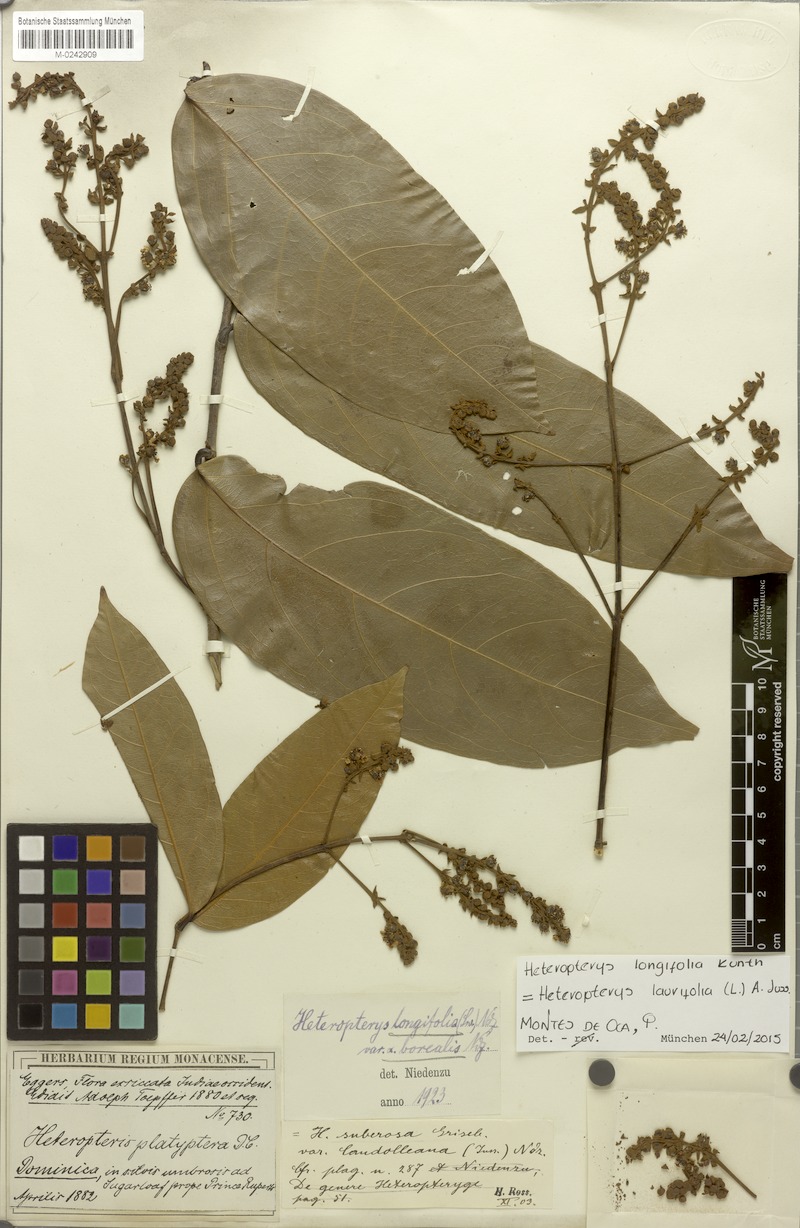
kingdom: Plantae
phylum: Tracheophyta
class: Magnoliopsida
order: Malpighiales
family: Malpighiaceae
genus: Heteropterys
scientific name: Heteropterys laurifolia
